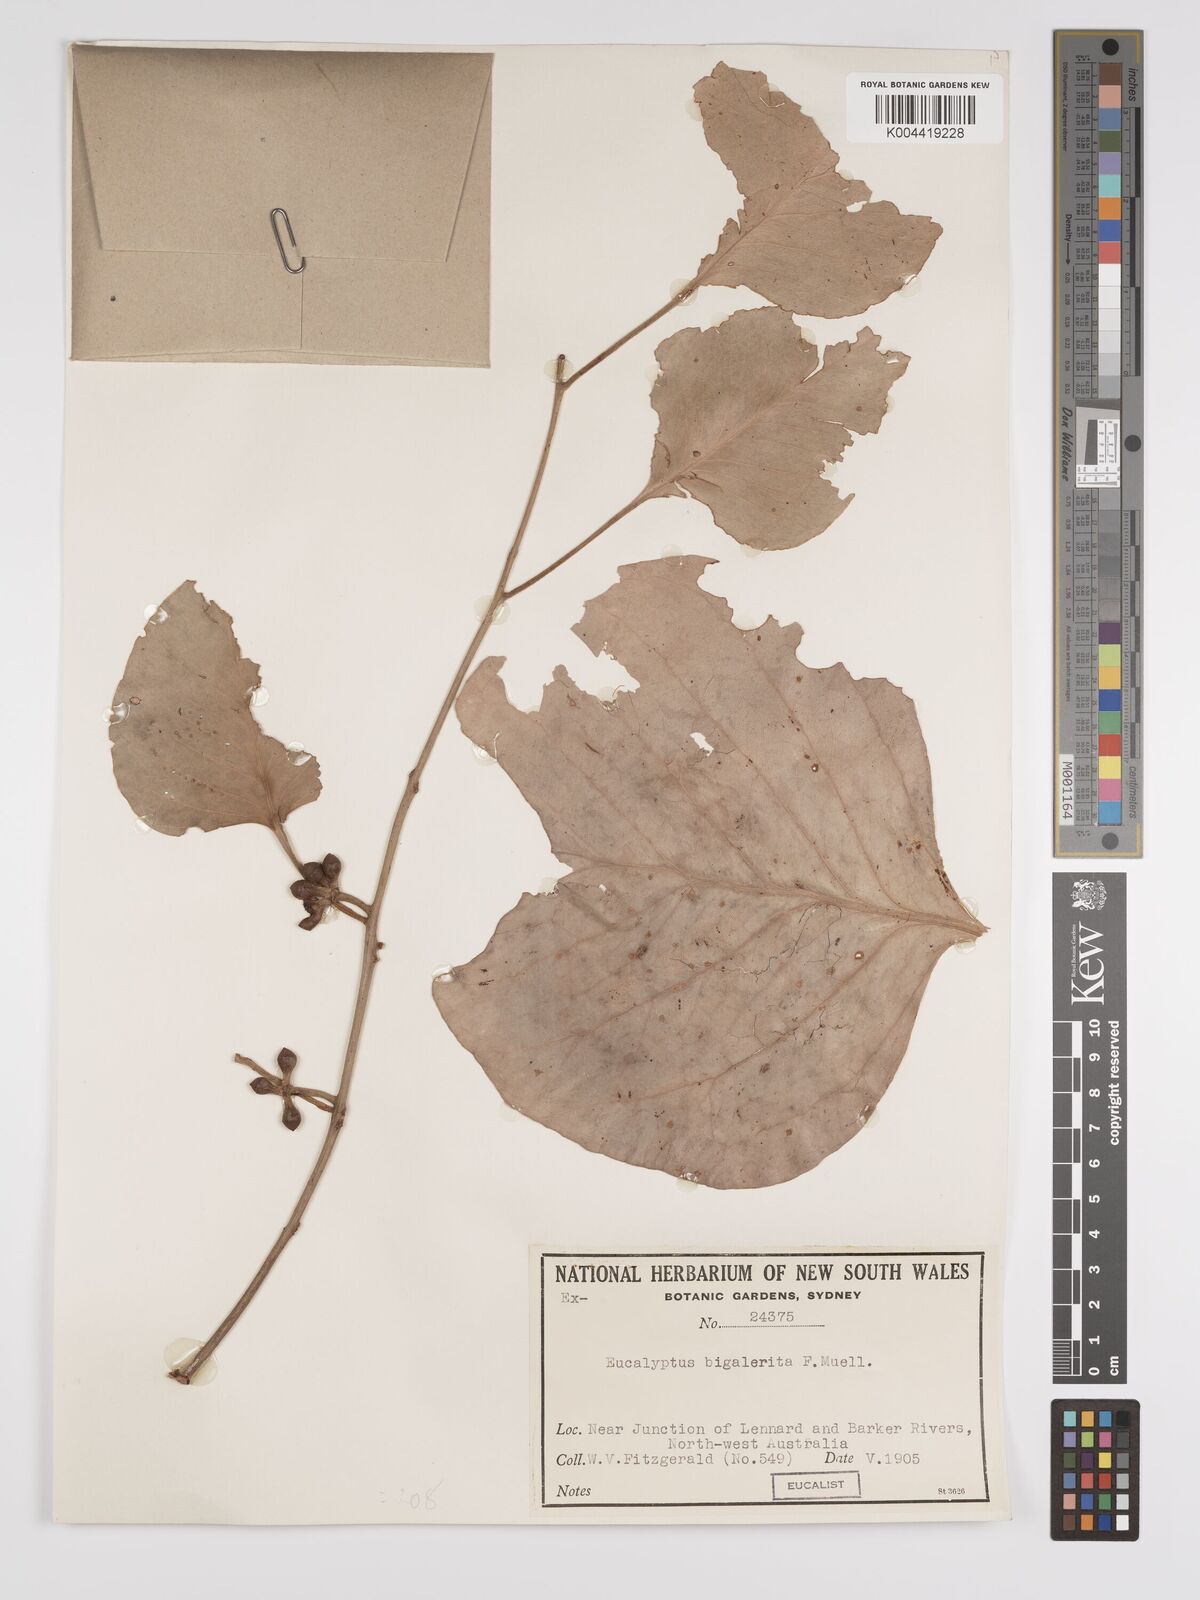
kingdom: Plantae
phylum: Tracheophyta
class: Magnoliopsida
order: Myrtales
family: Myrtaceae
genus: Eucalyptus
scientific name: Eucalyptus bigalerita
